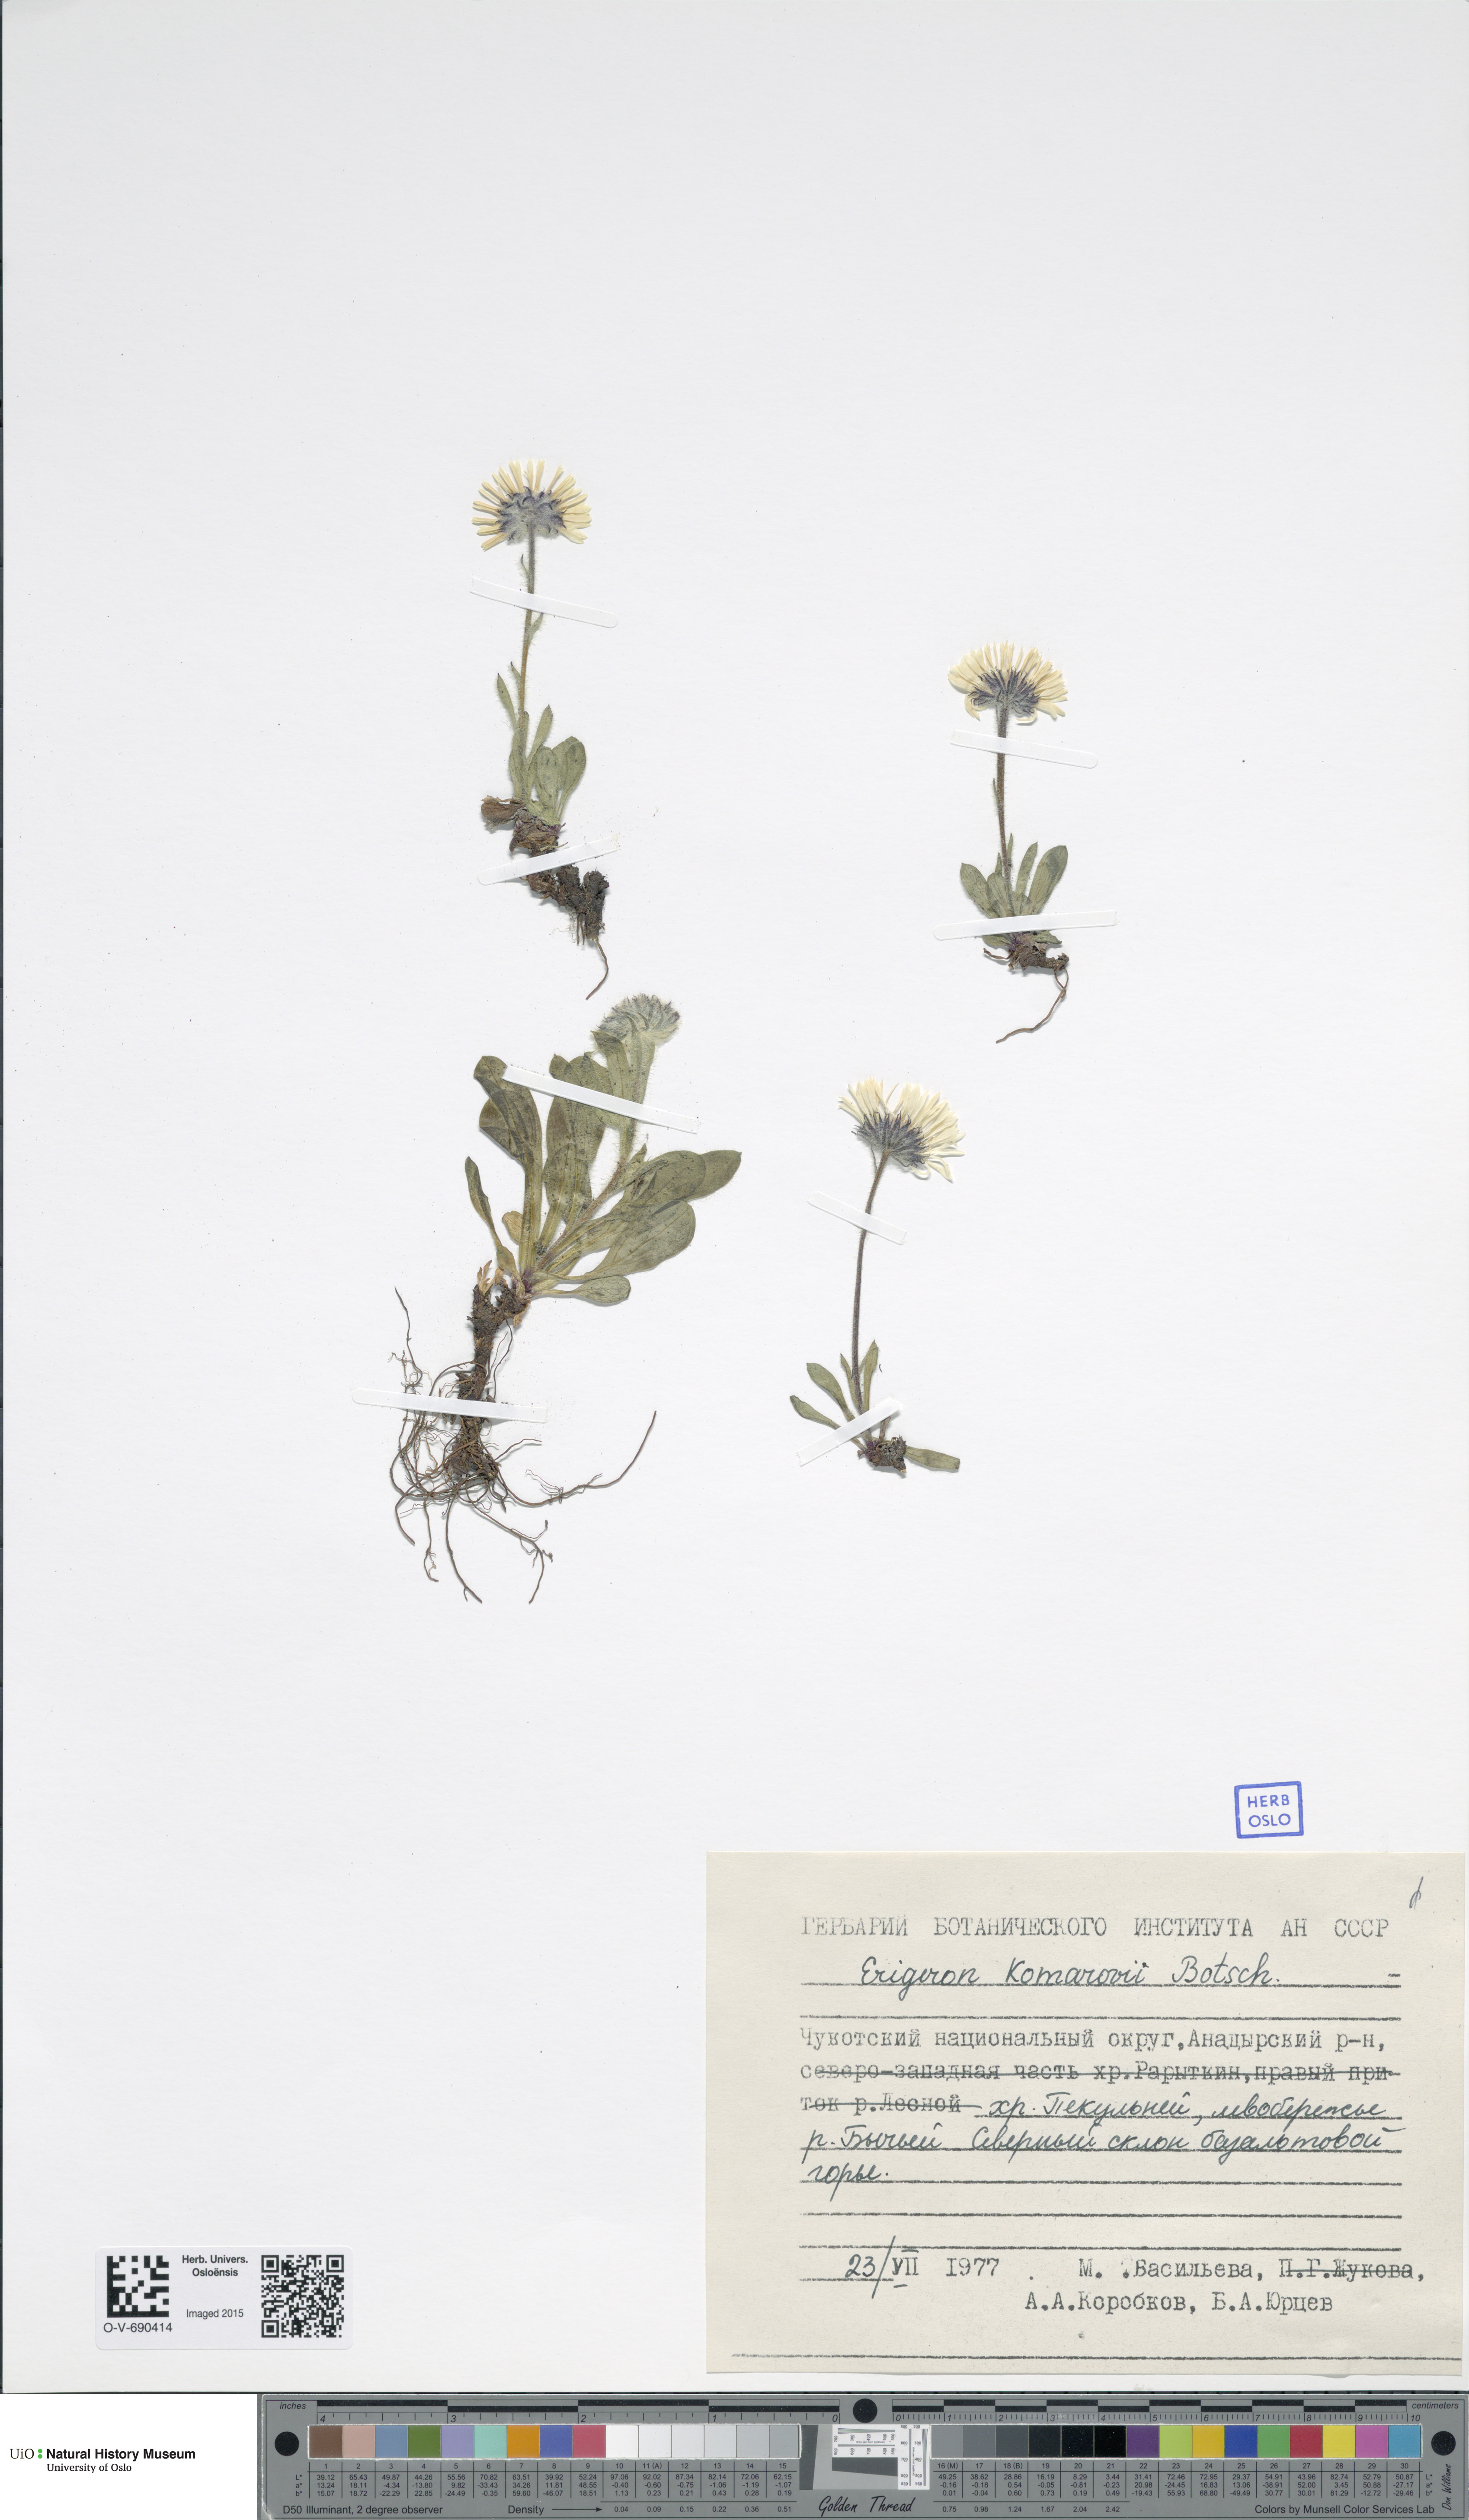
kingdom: Plantae
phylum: Tracheophyta
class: Magnoliopsida
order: Asterales
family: Asteraceae
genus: Erigeron
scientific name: Erigeron alpicola
